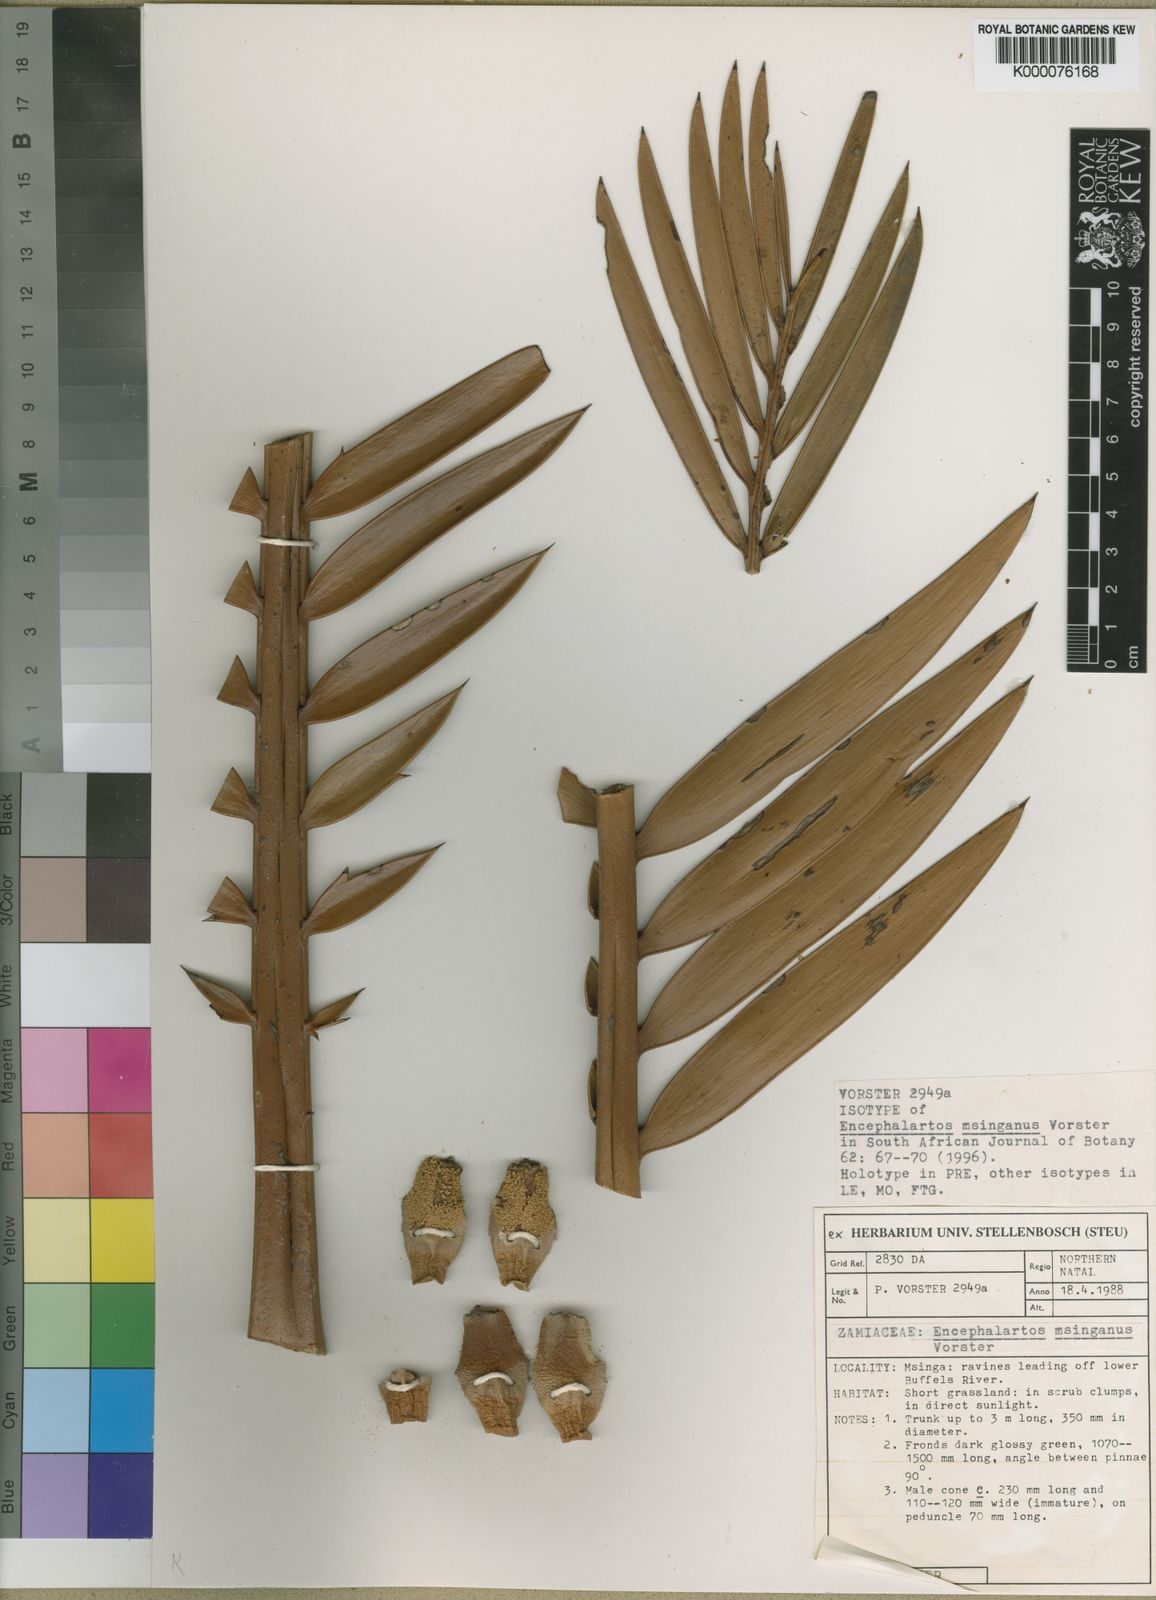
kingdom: Plantae
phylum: Tracheophyta
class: Cycadopsida
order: Cycadales
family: Zamiaceae
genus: Encephalartos
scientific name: Encephalartos msinganus
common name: Msinga cycad
